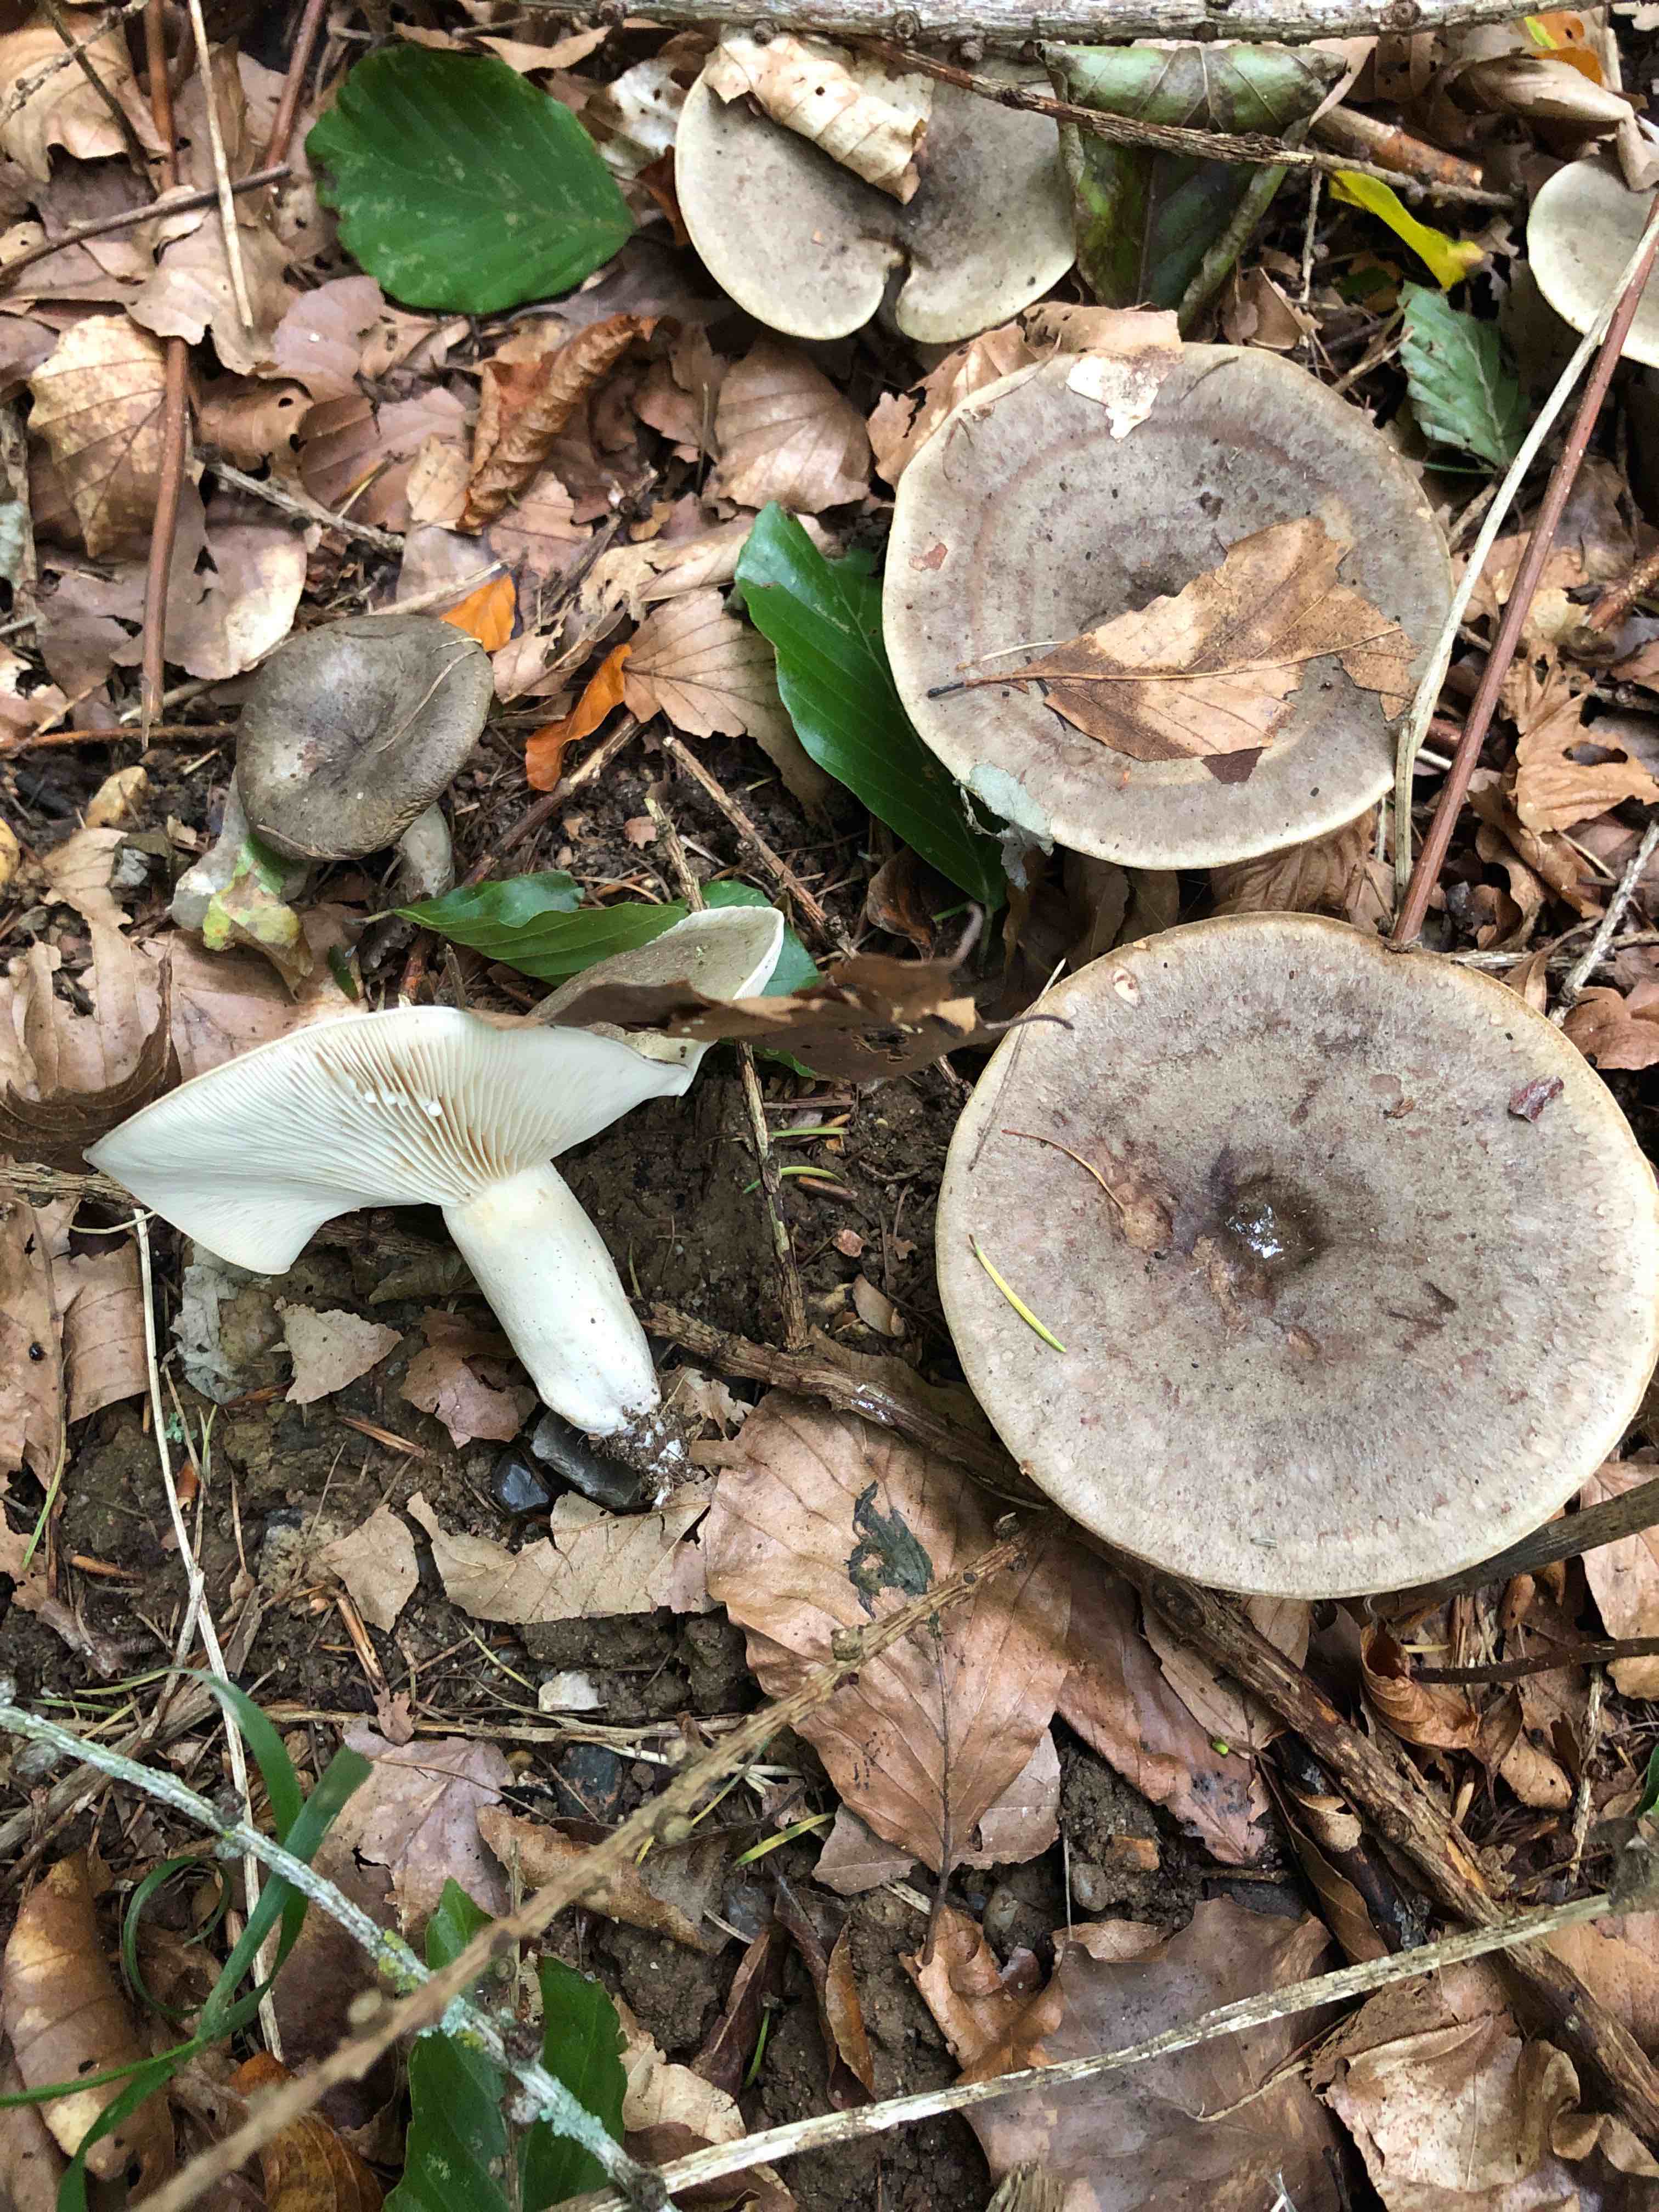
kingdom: Fungi
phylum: Basidiomycota
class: Agaricomycetes
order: Russulales
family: Russulaceae
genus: Lactarius
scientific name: Lactarius fluens
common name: lysrandet mælkehat
